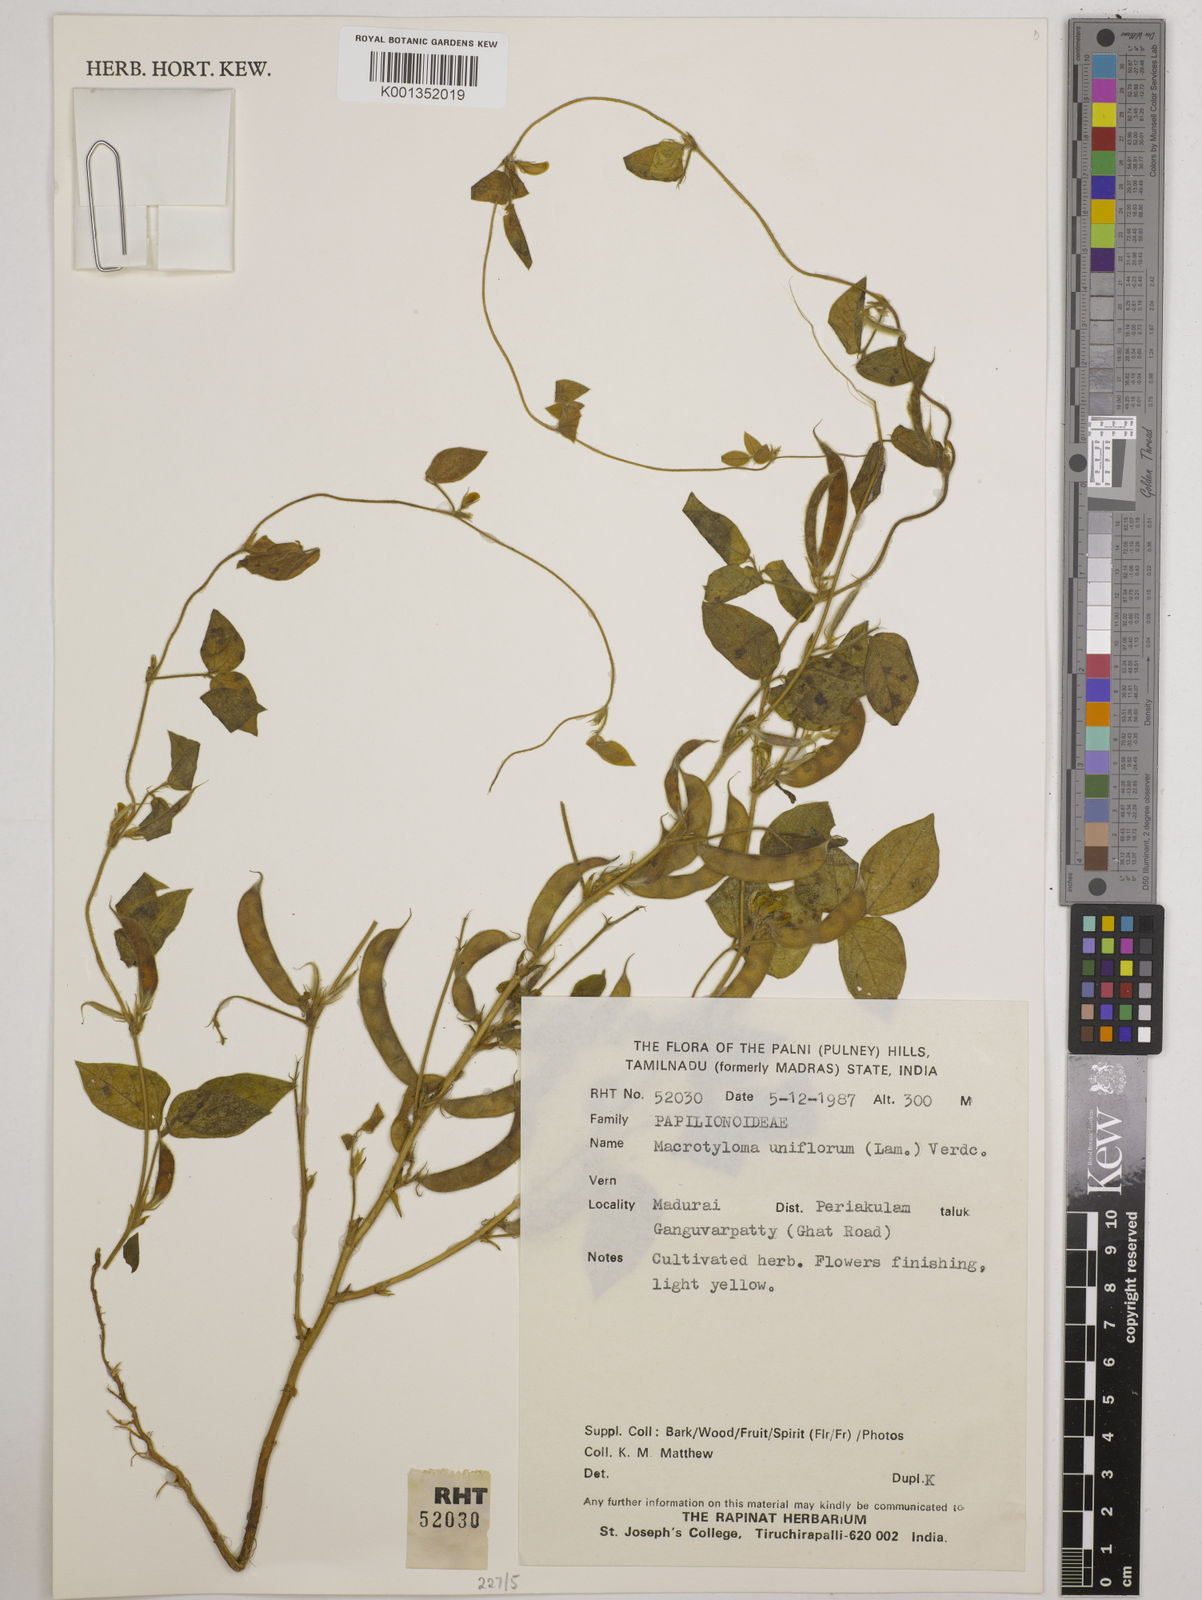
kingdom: Plantae
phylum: Tracheophyta
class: Magnoliopsida
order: Fabales
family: Fabaceae
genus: Macrotyloma
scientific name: Macrotyloma uniflorum
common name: Horse gram
